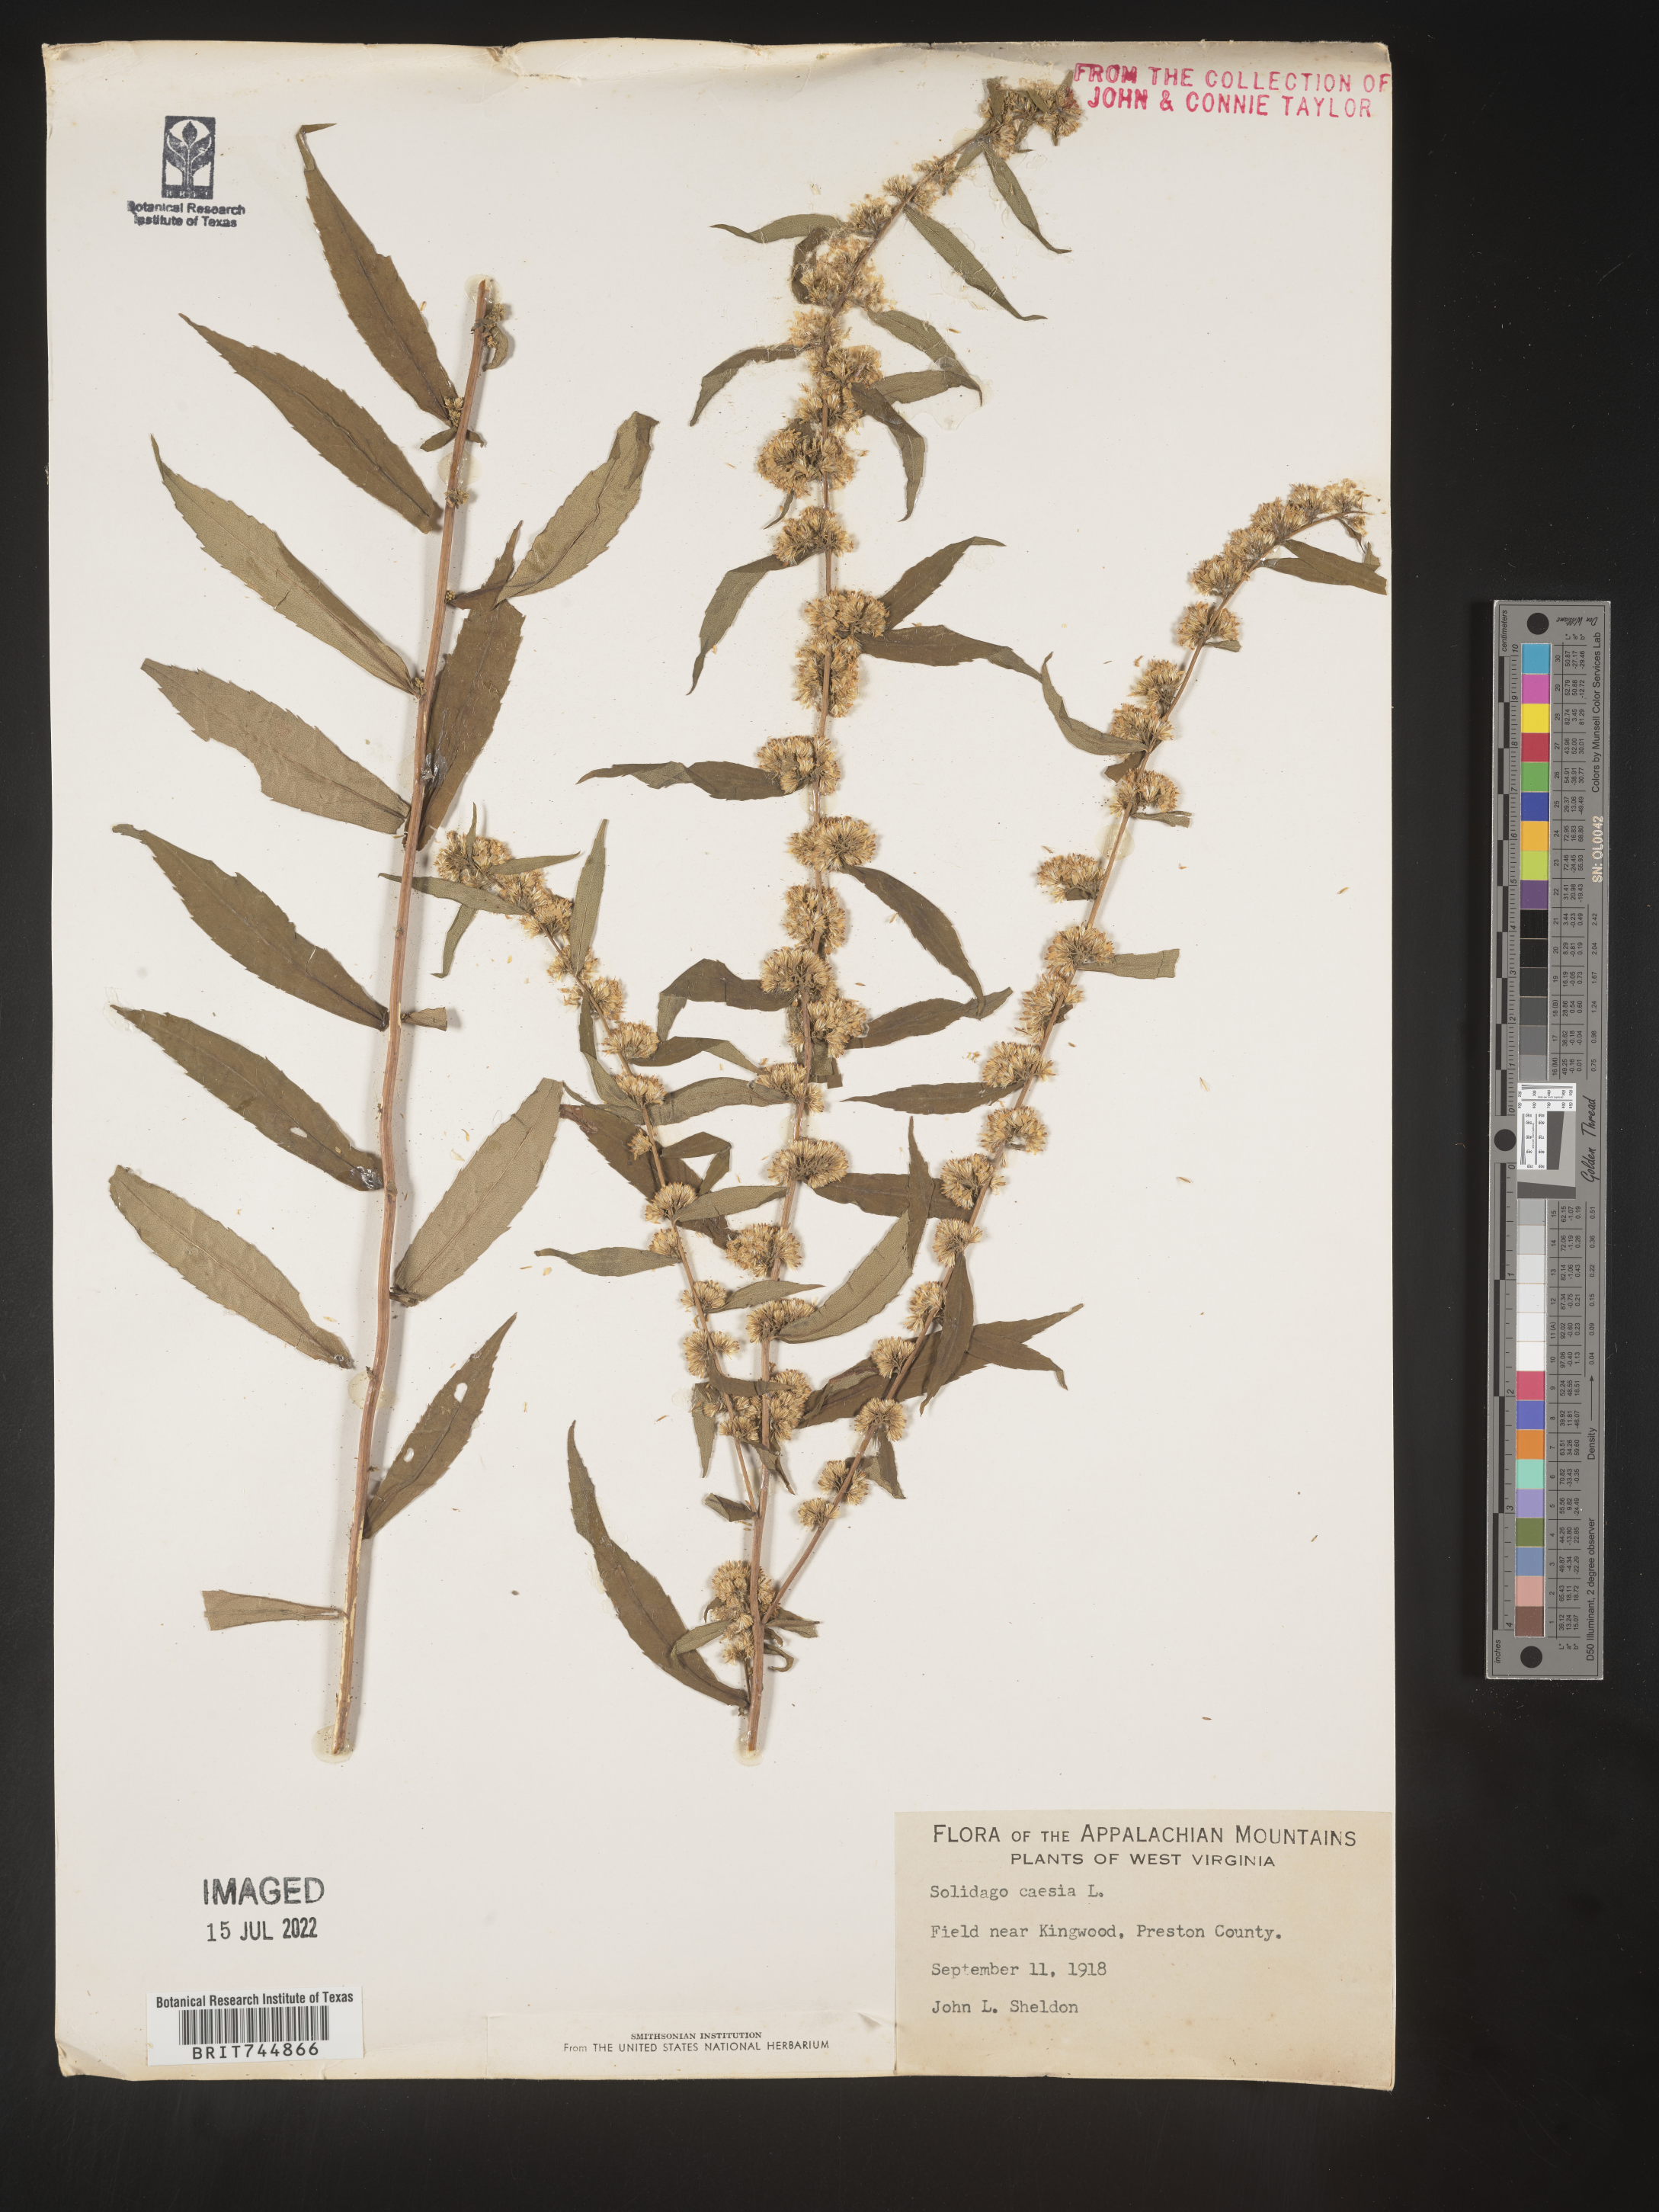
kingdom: Plantae
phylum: Tracheophyta
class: Magnoliopsida
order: Asterales
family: Asteraceae
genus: Solidago
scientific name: Solidago caesia
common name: Woodland goldenrod
